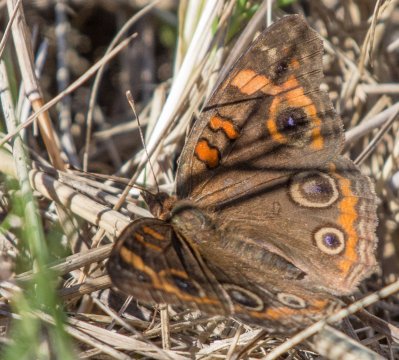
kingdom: Animalia
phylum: Arthropoda
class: Insecta
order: Lepidoptera
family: Nymphalidae
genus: Junonia
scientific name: Junonia evarete
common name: Mangrove Buckeye
